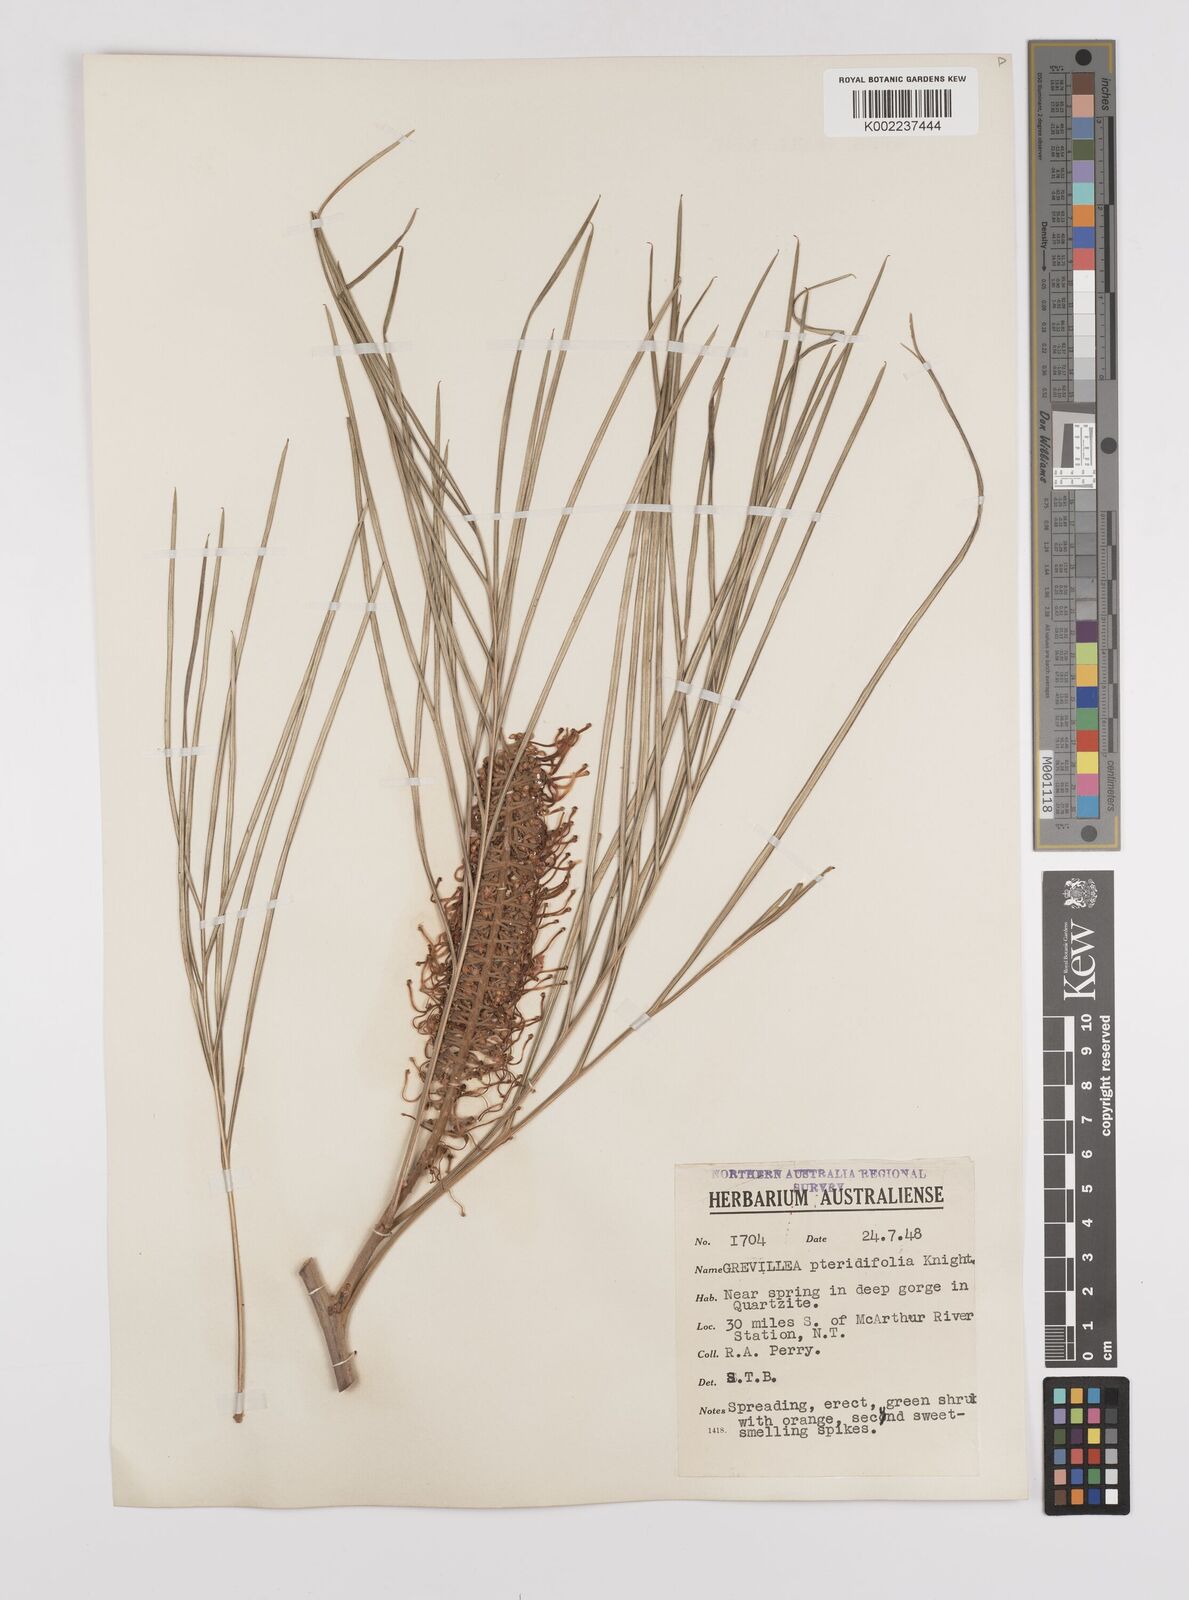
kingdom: Plantae
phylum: Tracheophyta
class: Magnoliopsida
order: Proteales
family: Proteaceae
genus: Grevillea
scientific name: Grevillea pteridifolia
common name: Golden grevillea
